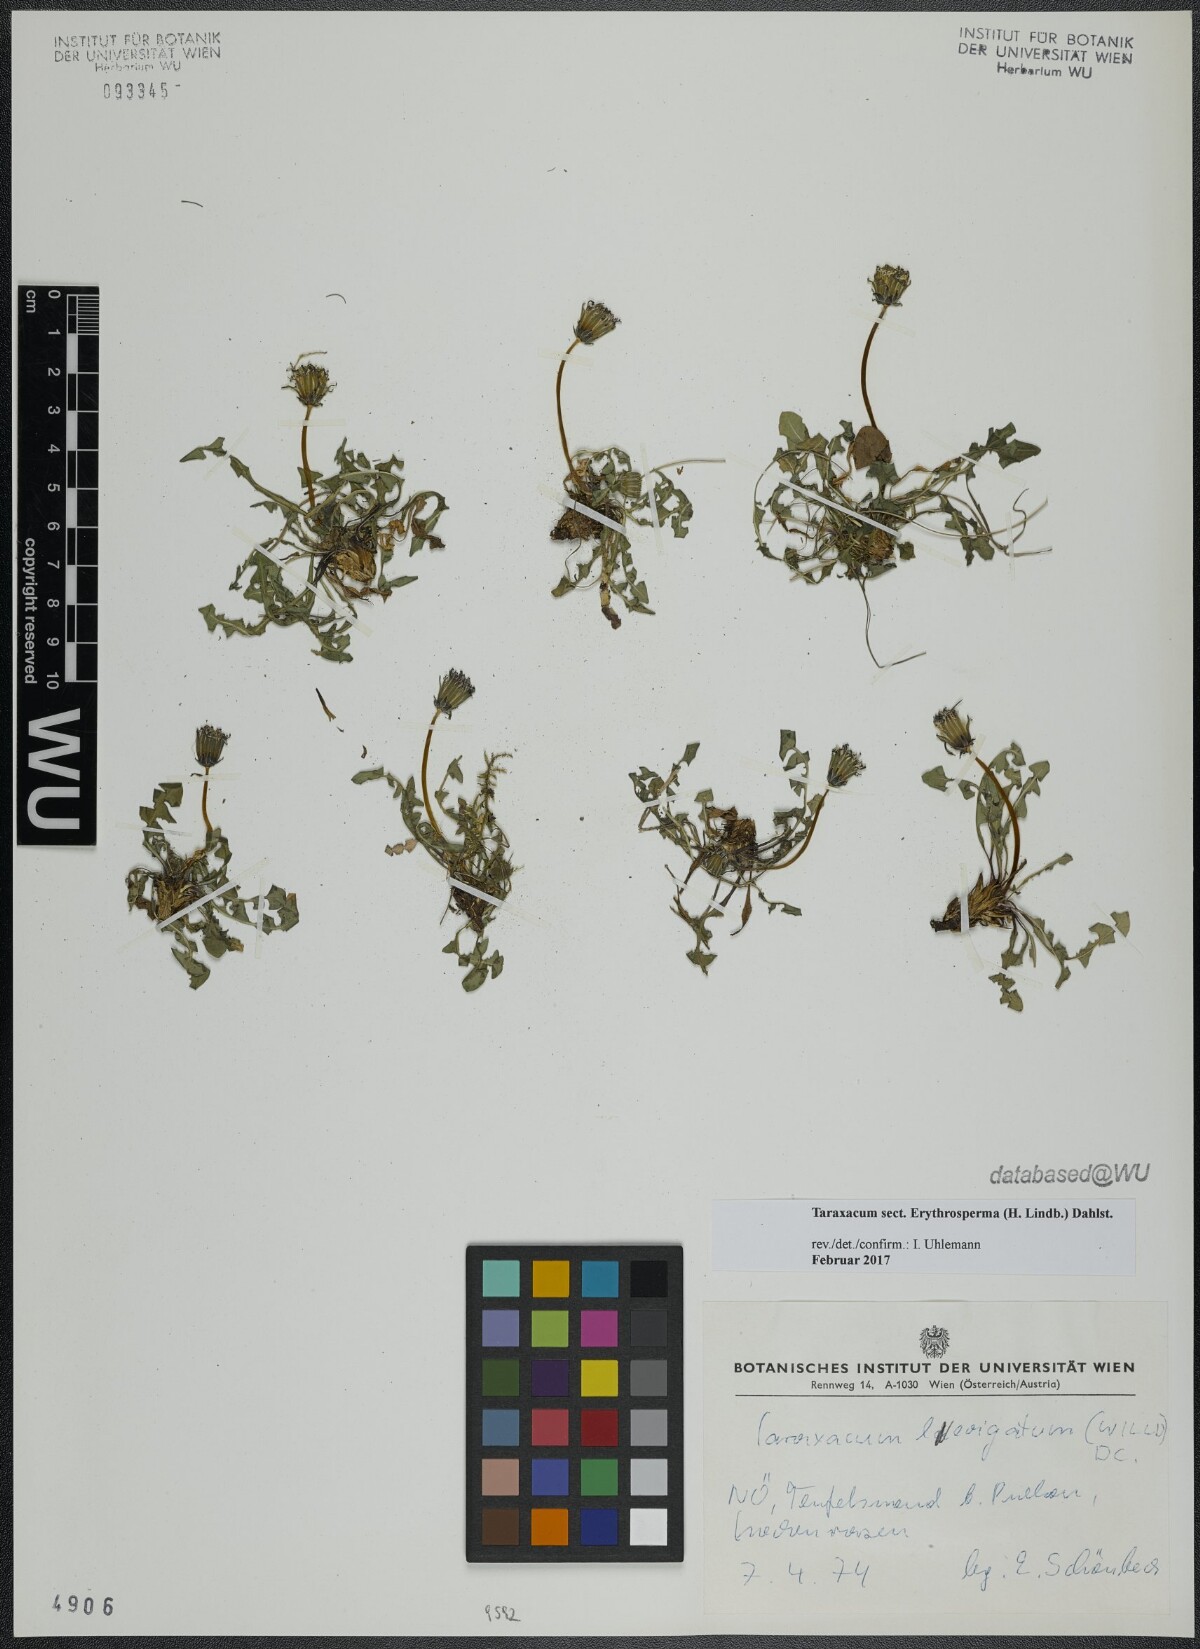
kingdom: Plantae
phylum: Tracheophyta
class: Magnoliopsida
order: Asterales
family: Asteraceae
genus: Taraxacum
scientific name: Taraxacum
